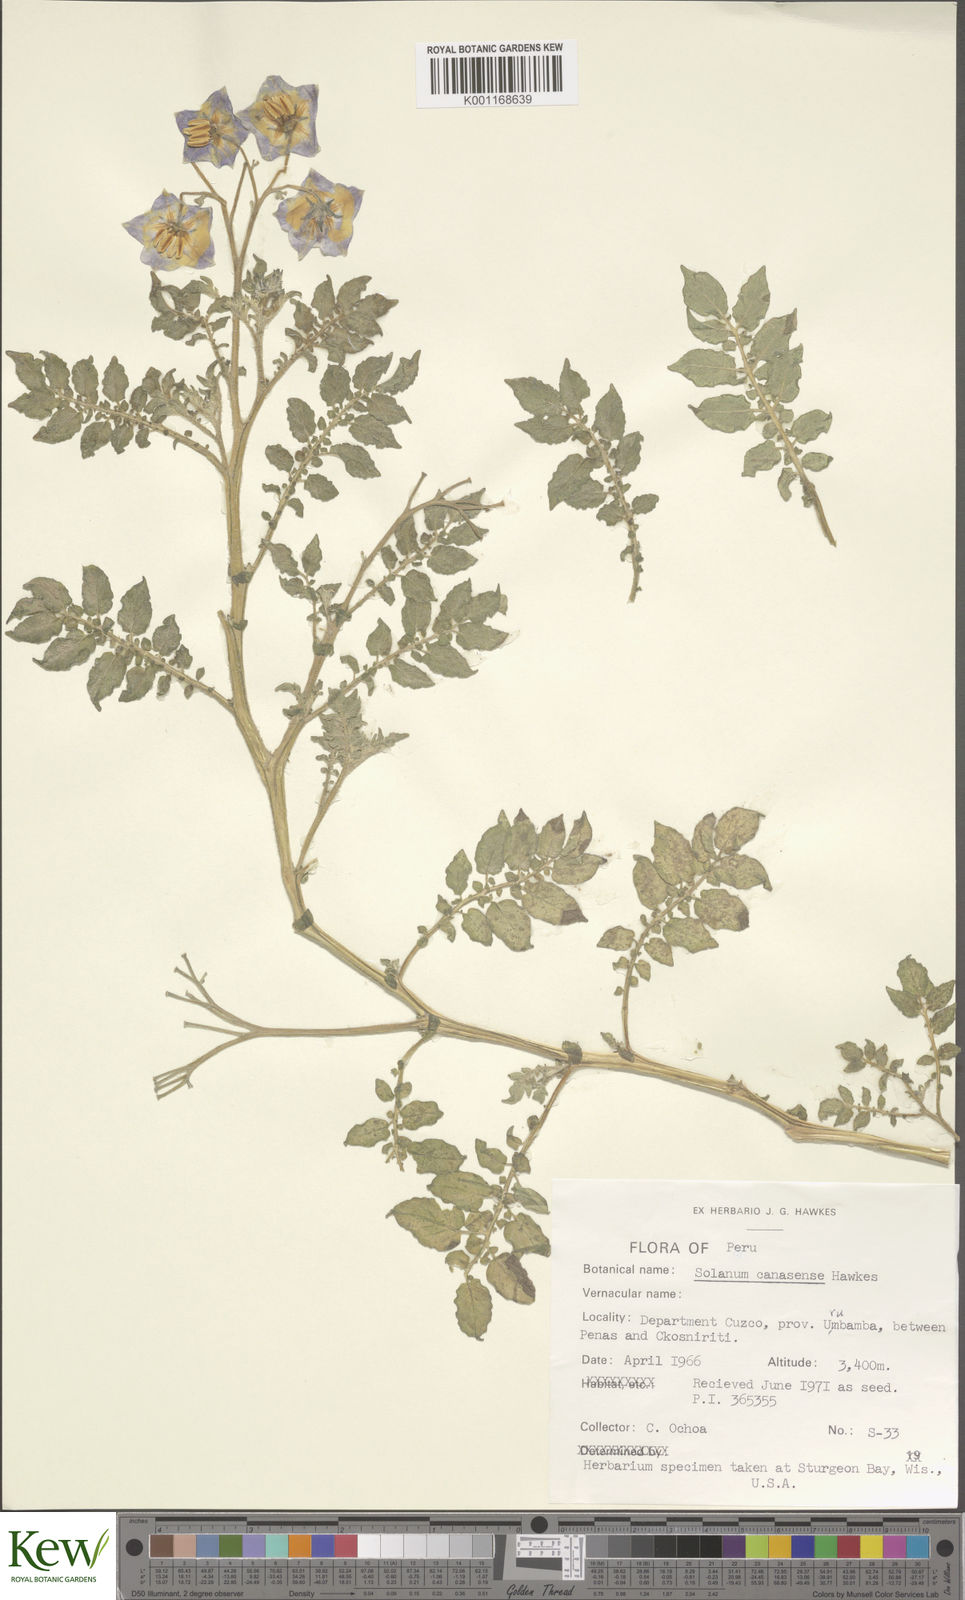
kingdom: Plantae
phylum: Tracheophyta
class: Magnoliopsida
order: Solanales
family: Solanaceae
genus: Solanum
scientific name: Solanum candolleanum
